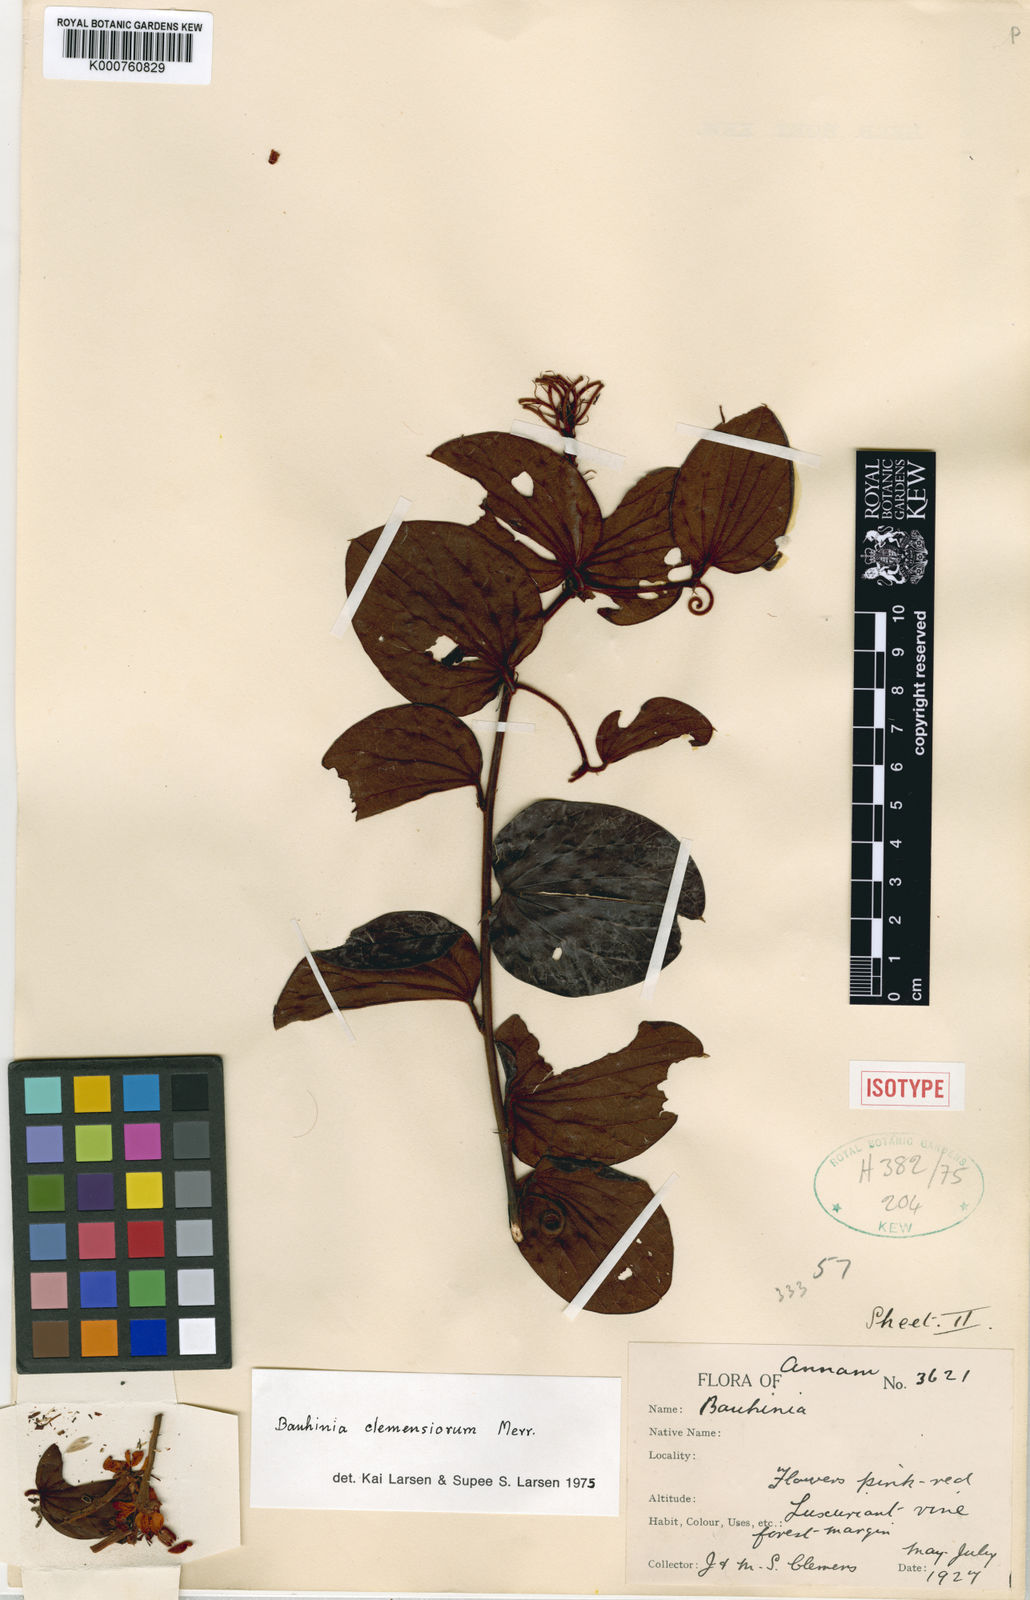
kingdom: Plantae
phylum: Tracheophyta
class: Magnoliopsida
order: Fabales
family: Fabaceae
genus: Cheniella
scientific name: Cheniella clemensiorum
